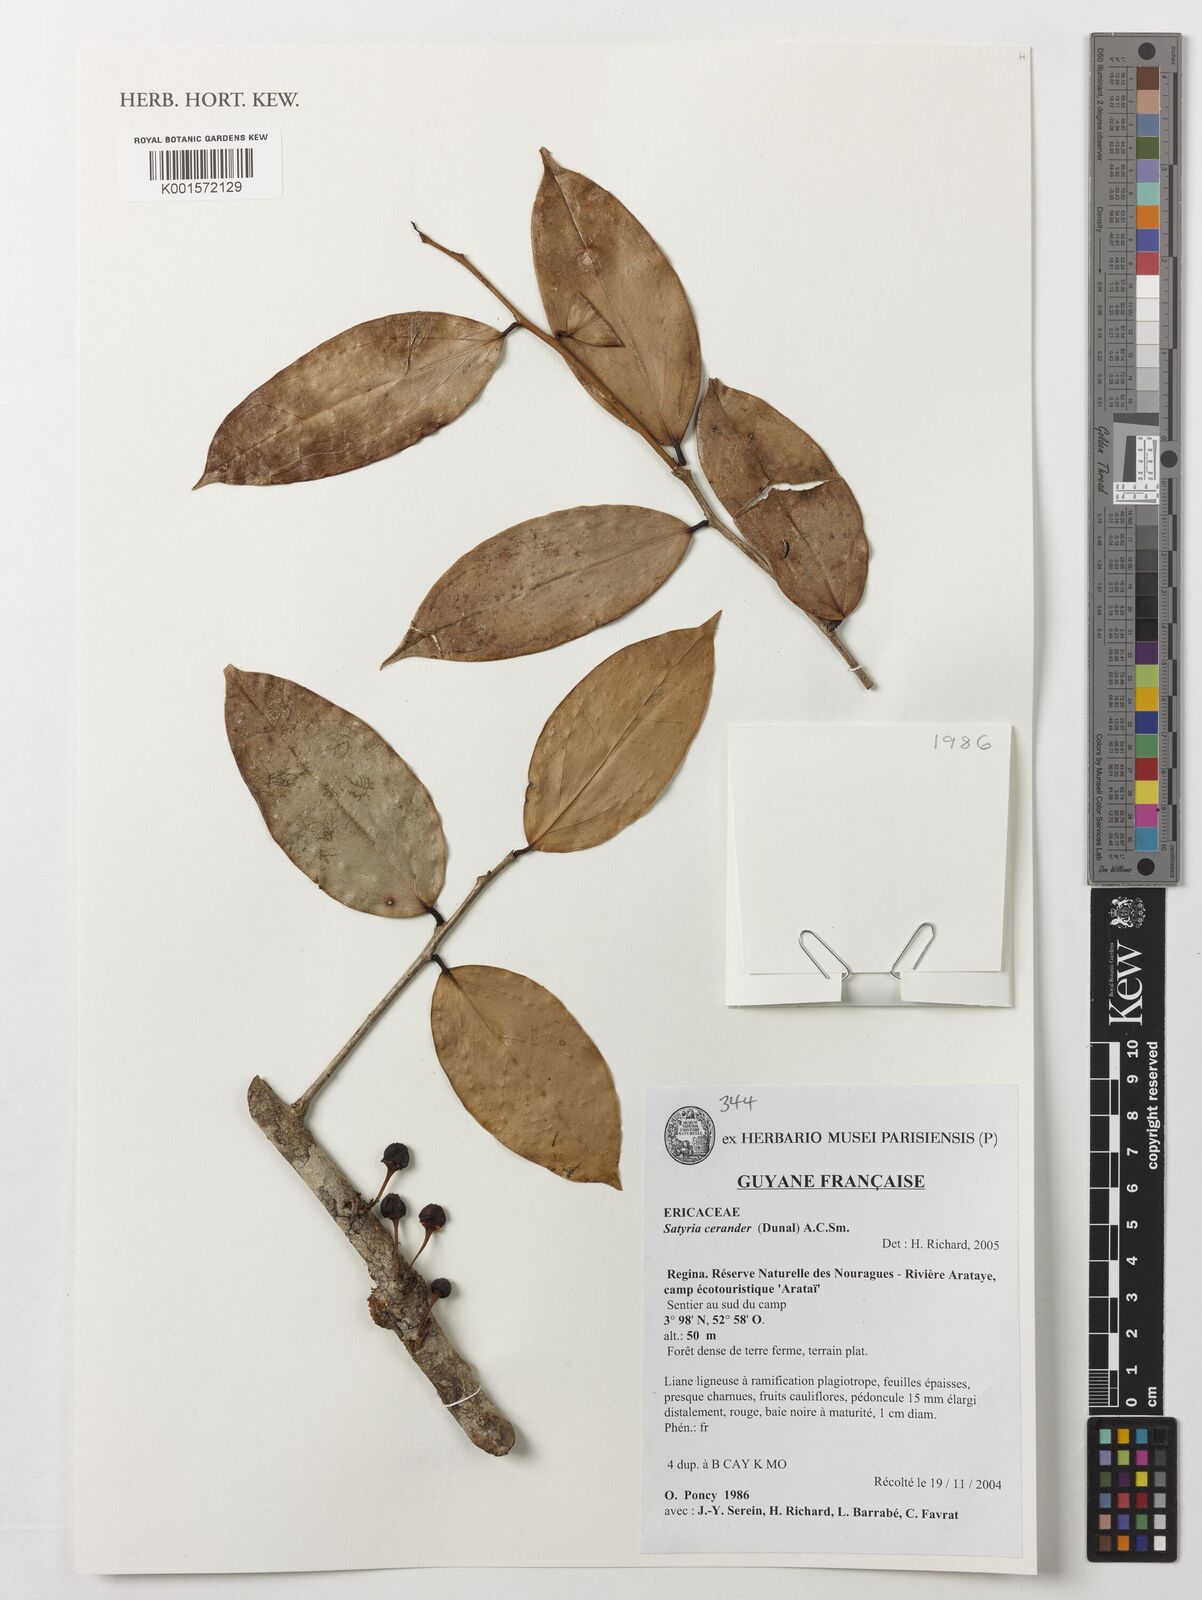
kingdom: Plantae
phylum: Tracheophyta
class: Magnoliopsida
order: Ericales
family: Ericaceae
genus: Satyria
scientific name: Satyria cerander
